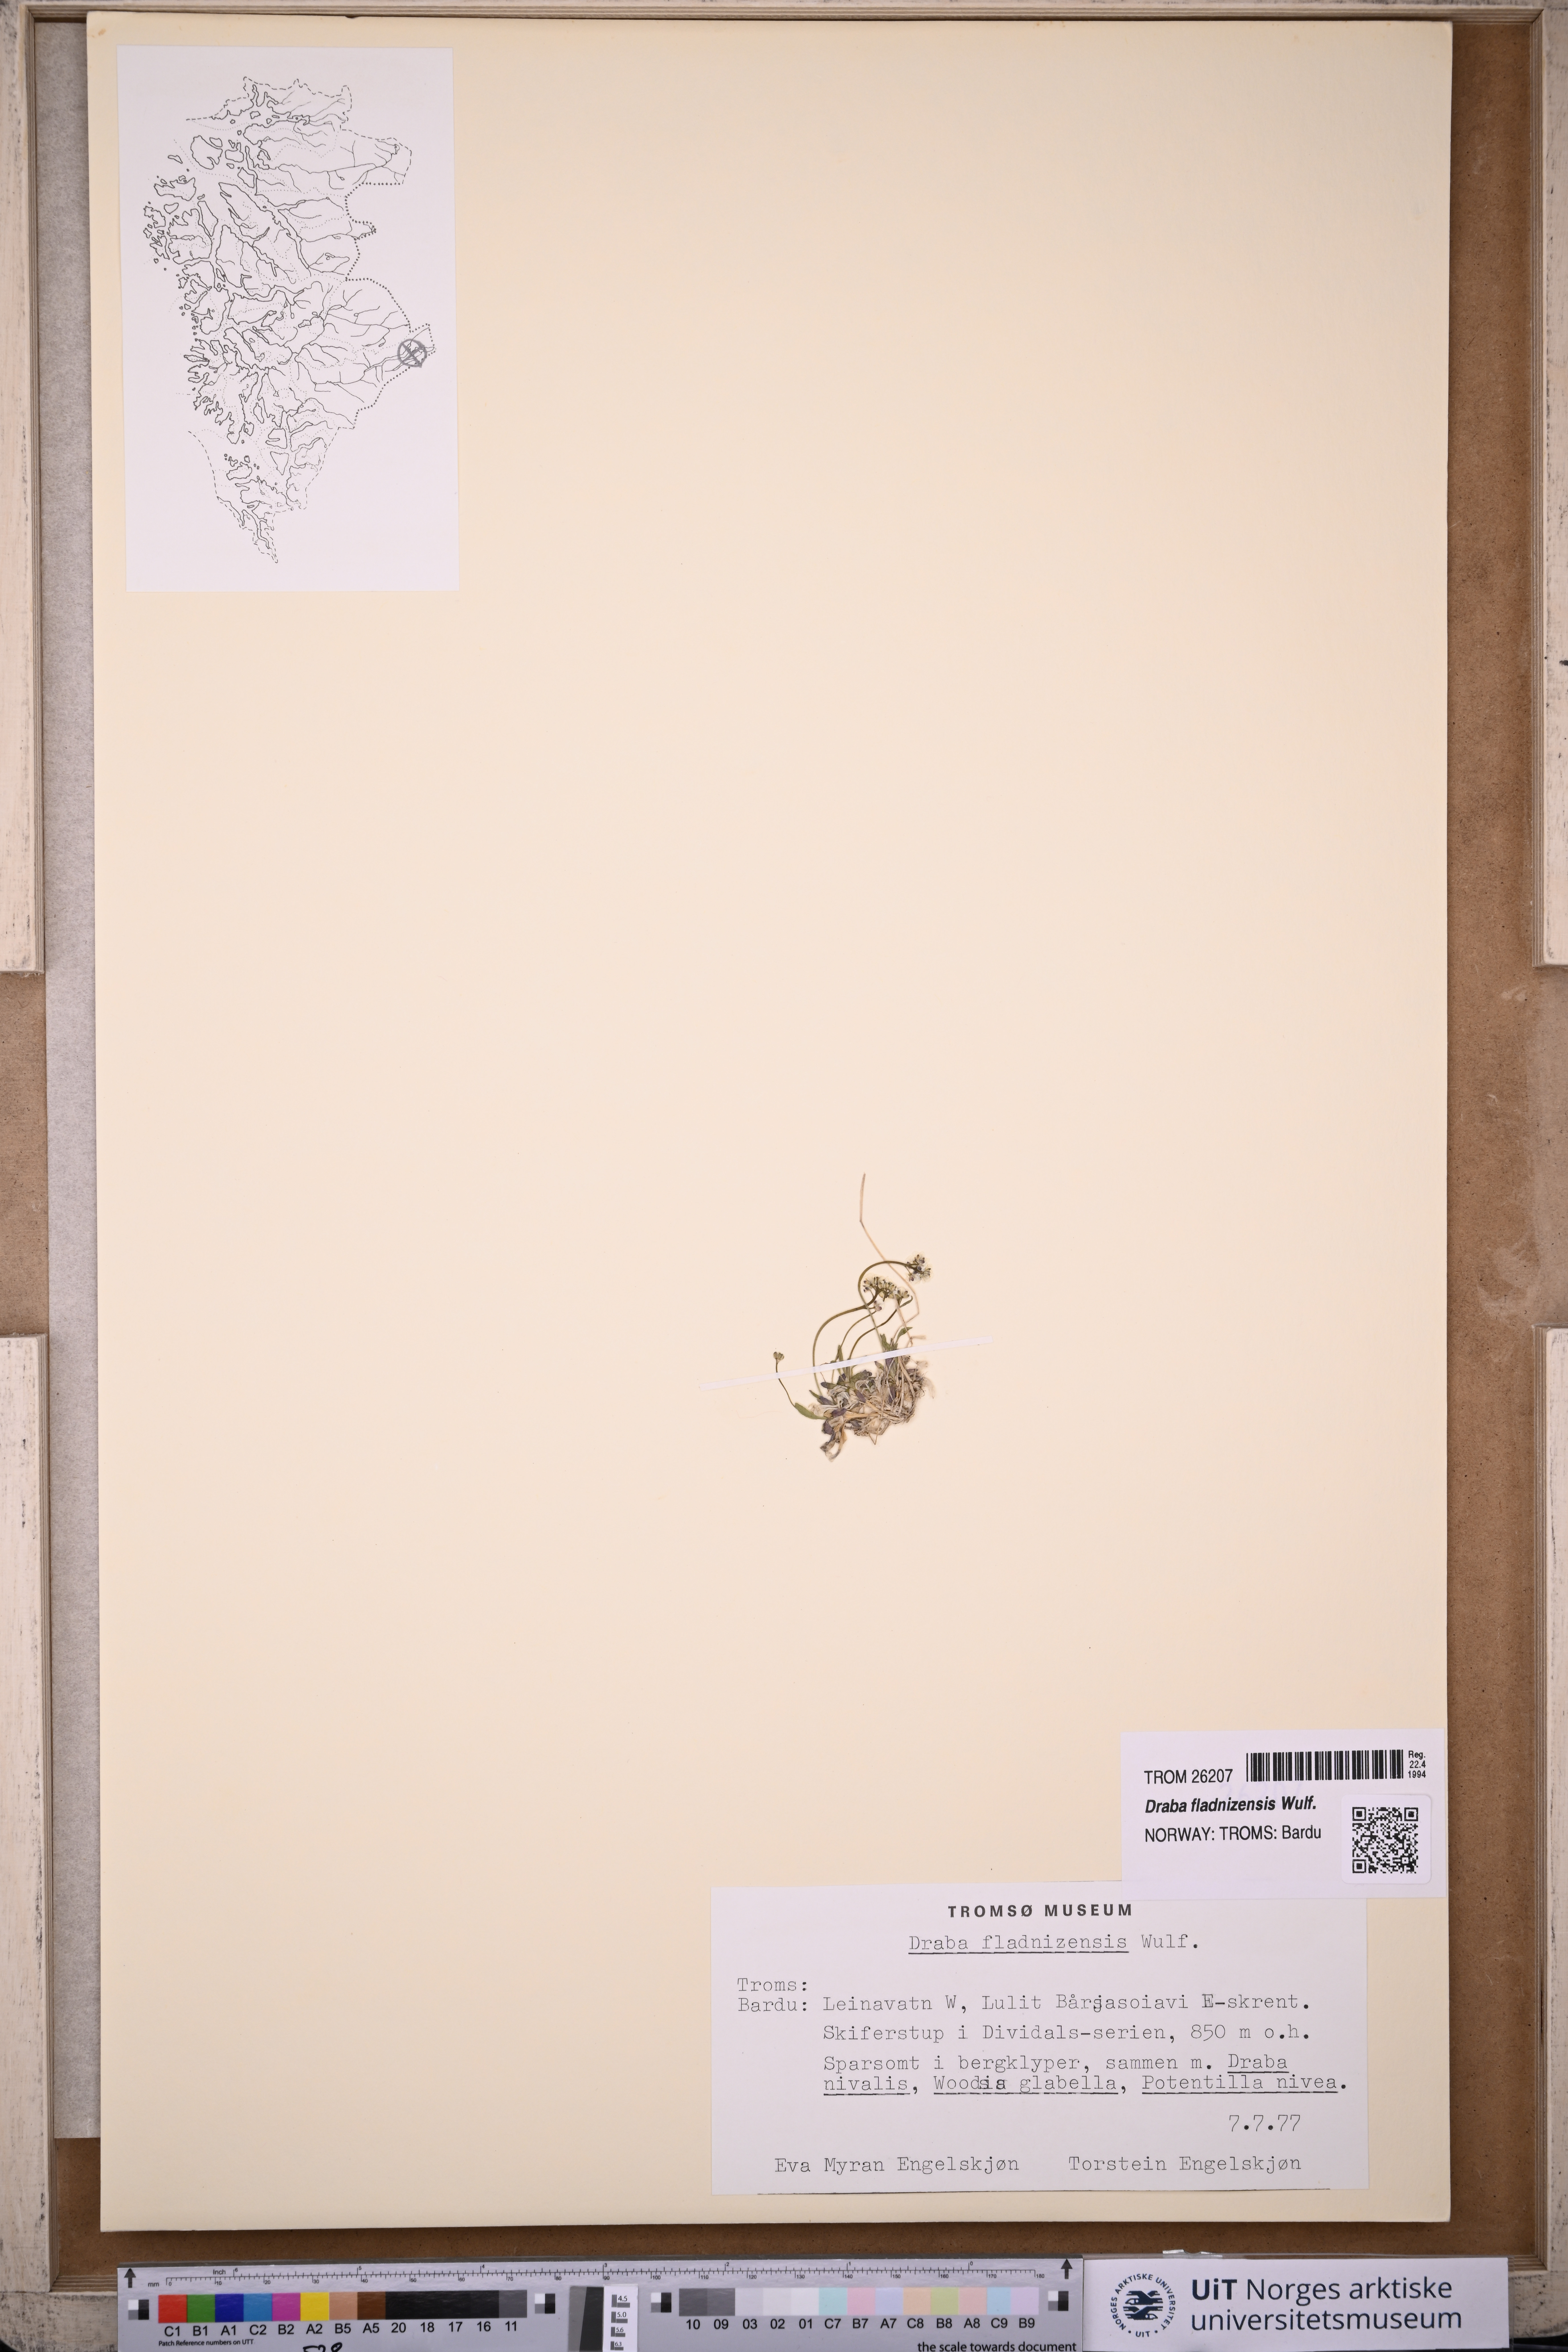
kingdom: Plantae
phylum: Tracheophyta
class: Magnoliopsida
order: Brassicales
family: Brassicaceae
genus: Draba
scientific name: Draba fladnizensis
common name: Austrian draba
